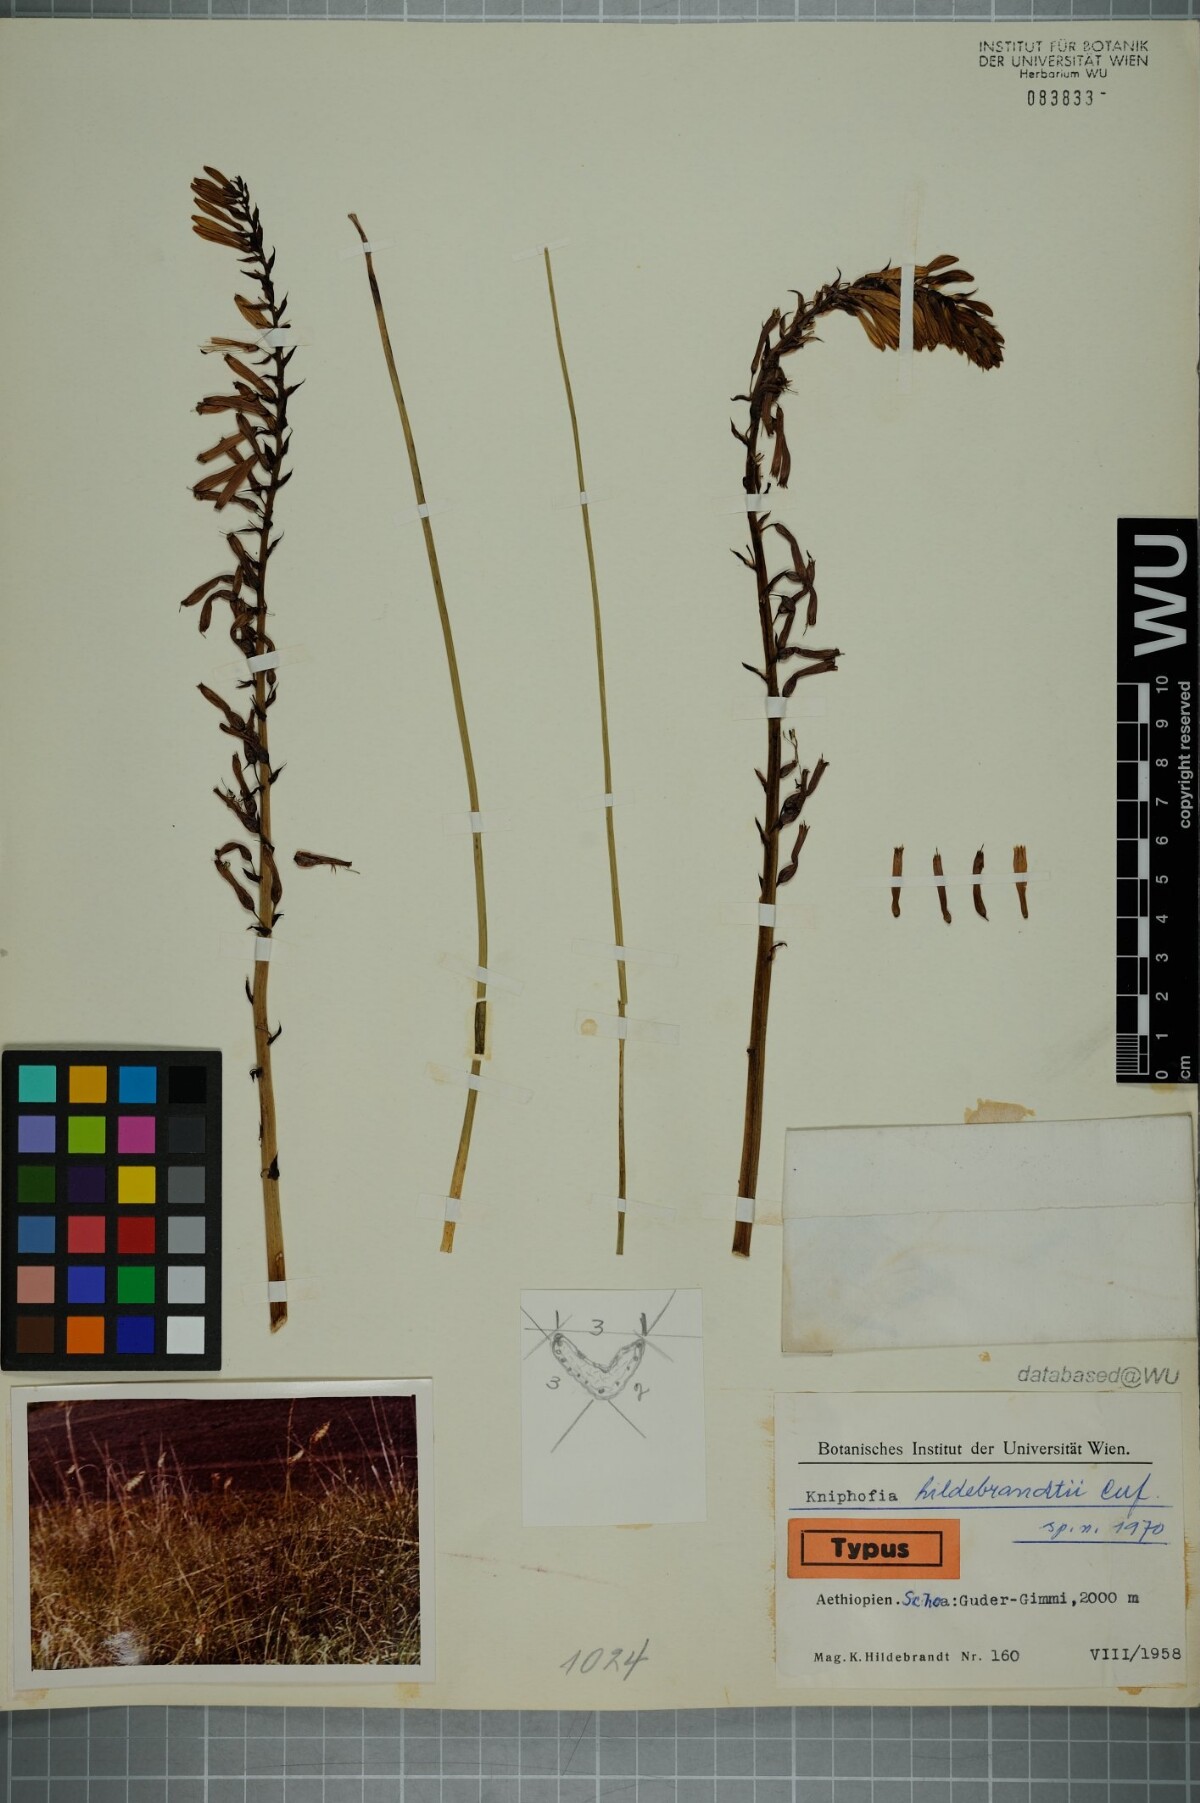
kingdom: Plantae
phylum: Tracheophyta
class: Liliopsida
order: Asparagales
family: Asphodelaceae
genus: Kniphofia
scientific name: Kniphofia hildebrandtii
